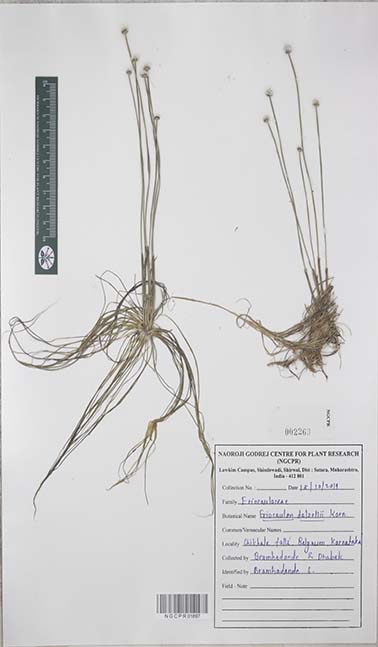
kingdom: Plantae
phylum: Tracheophyta
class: Liliopsida
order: Poales
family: Eriocaulaceae
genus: Eriocaulon
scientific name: Eriocaulon dalzellii
